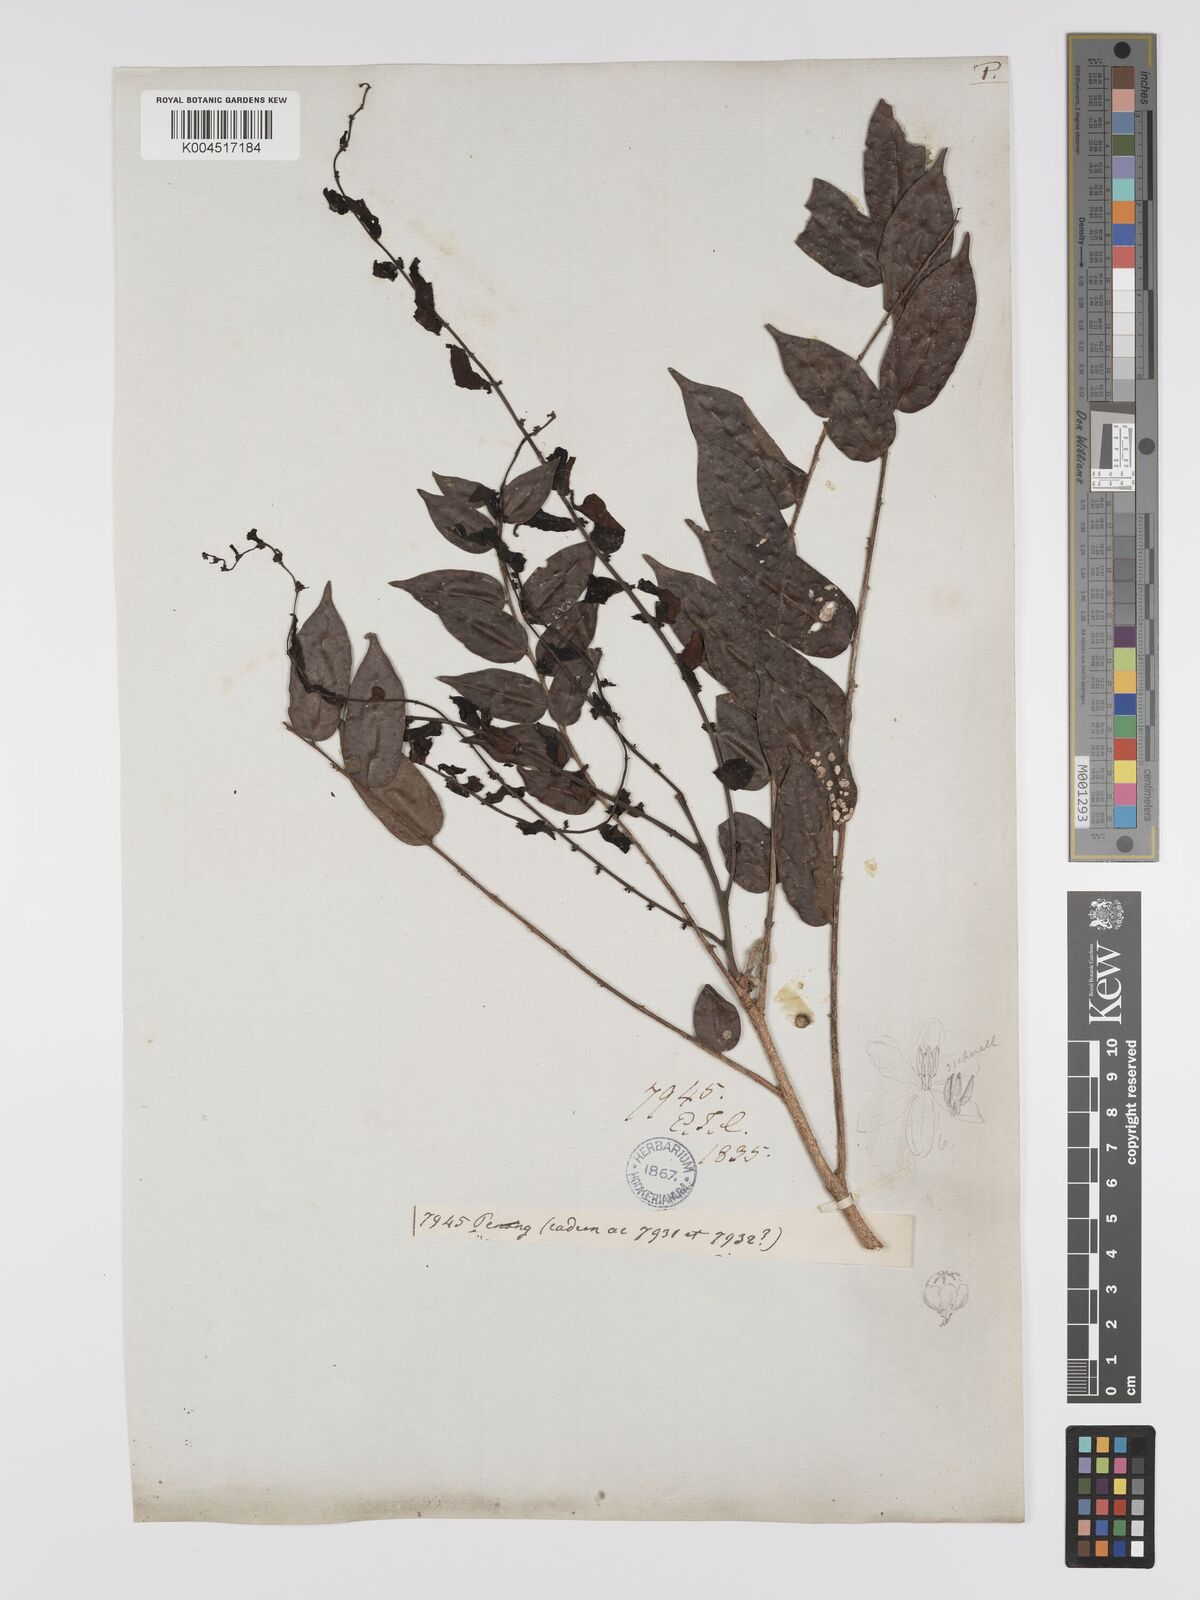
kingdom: Plantae
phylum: Tracheophyta
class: Magnoliopsida
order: Malpighiales
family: Phyllanthaceae
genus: Phyllanthus
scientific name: Phyllanthus
